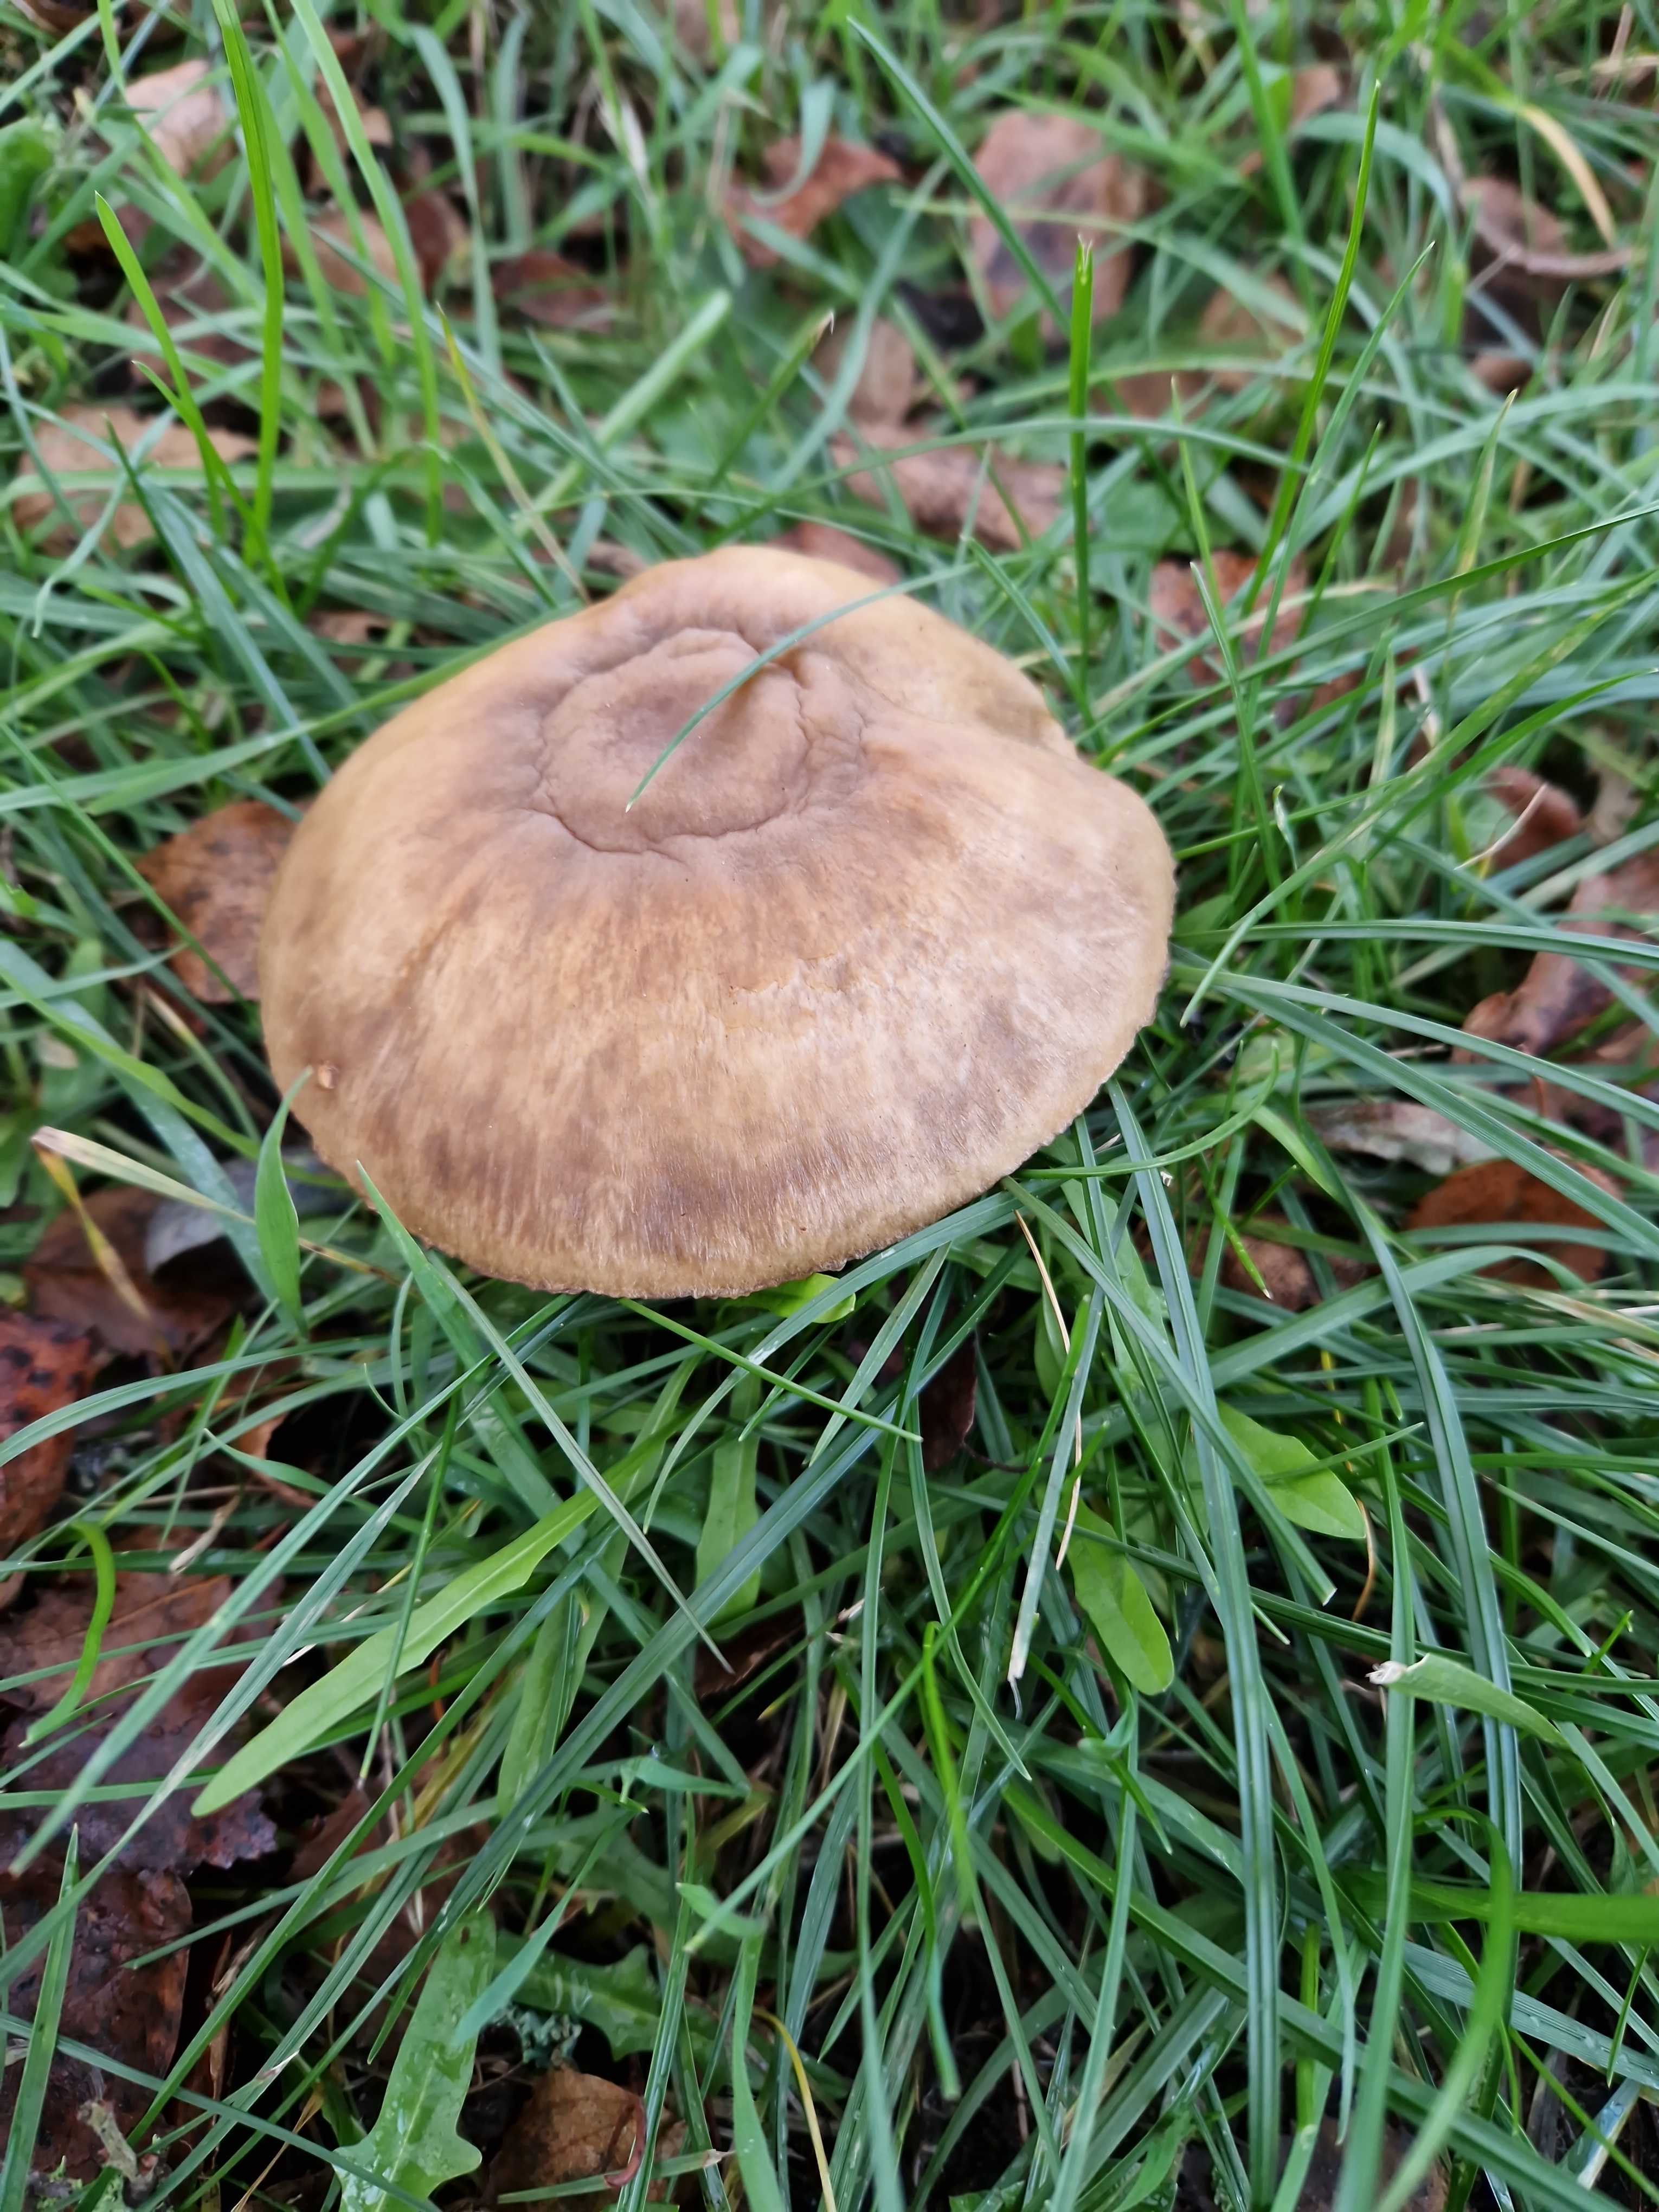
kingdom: Fungi
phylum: Basidiomycota
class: Agaricomycetes
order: Agaricales
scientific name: Agaricales
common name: champignonordenen
